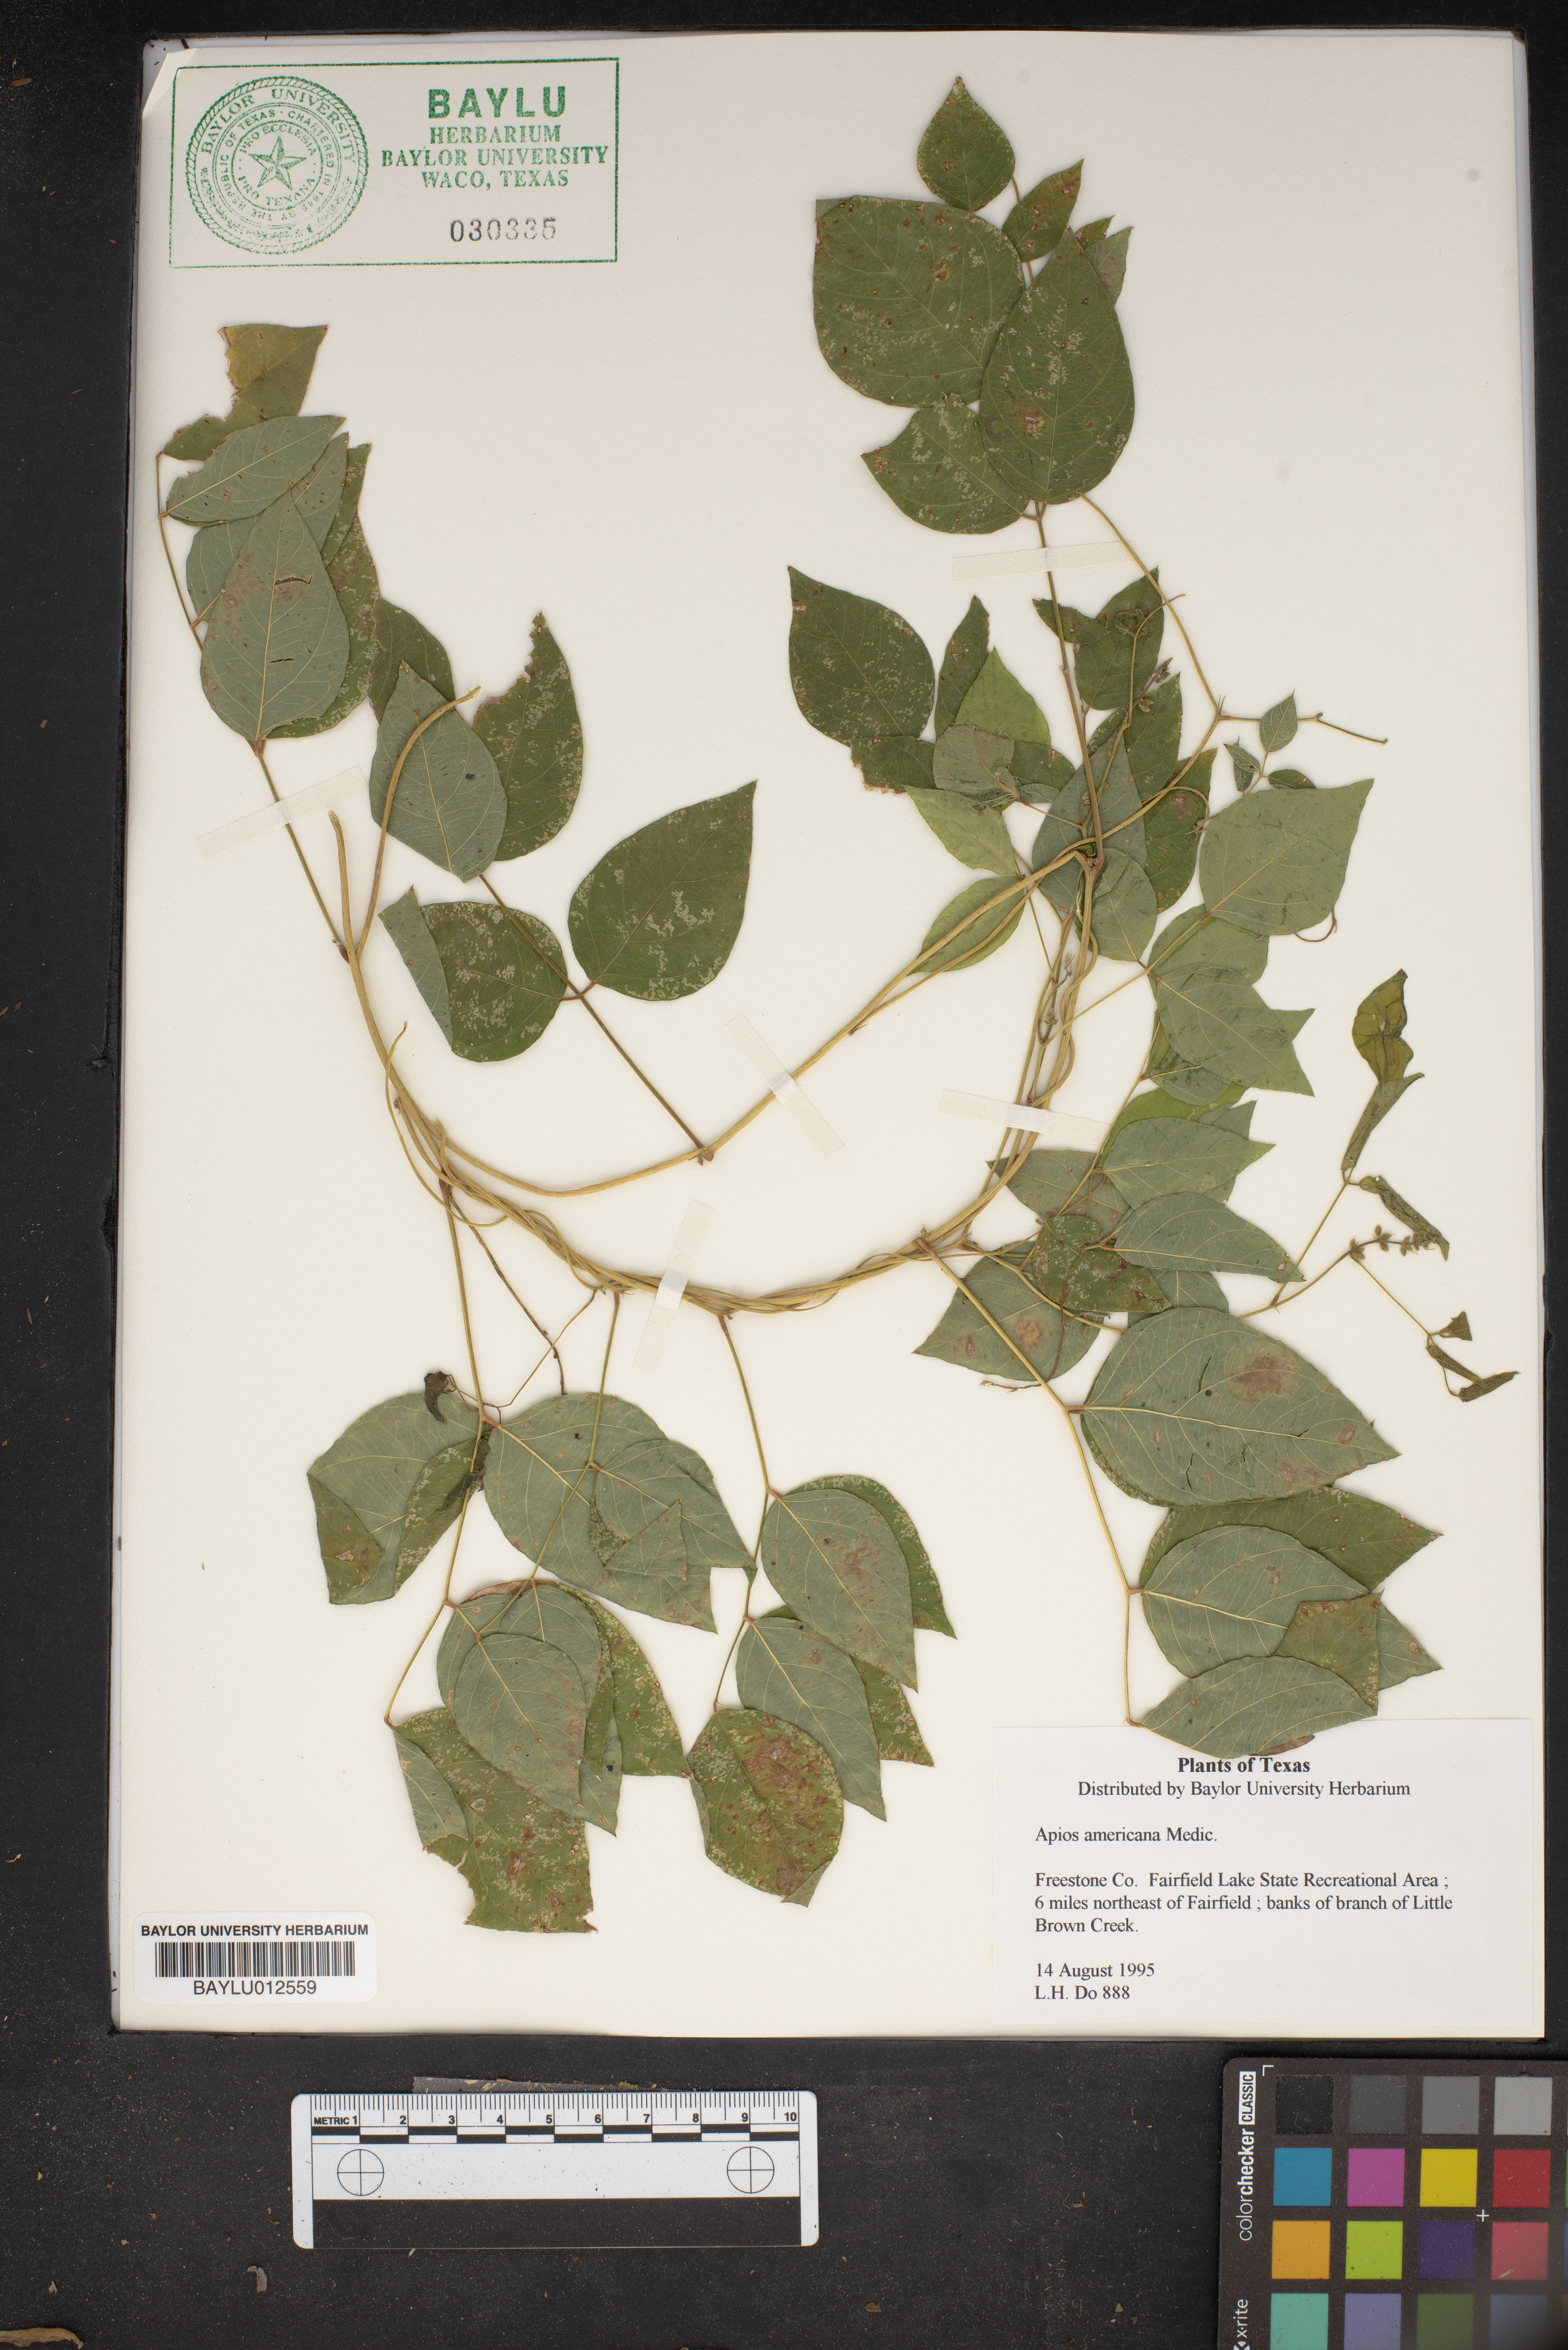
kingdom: Plantae
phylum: Tracheophyta
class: Magnoliopsida
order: Fabales
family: Fabaceae
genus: Apios
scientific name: Apios americana
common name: American potato-bean
